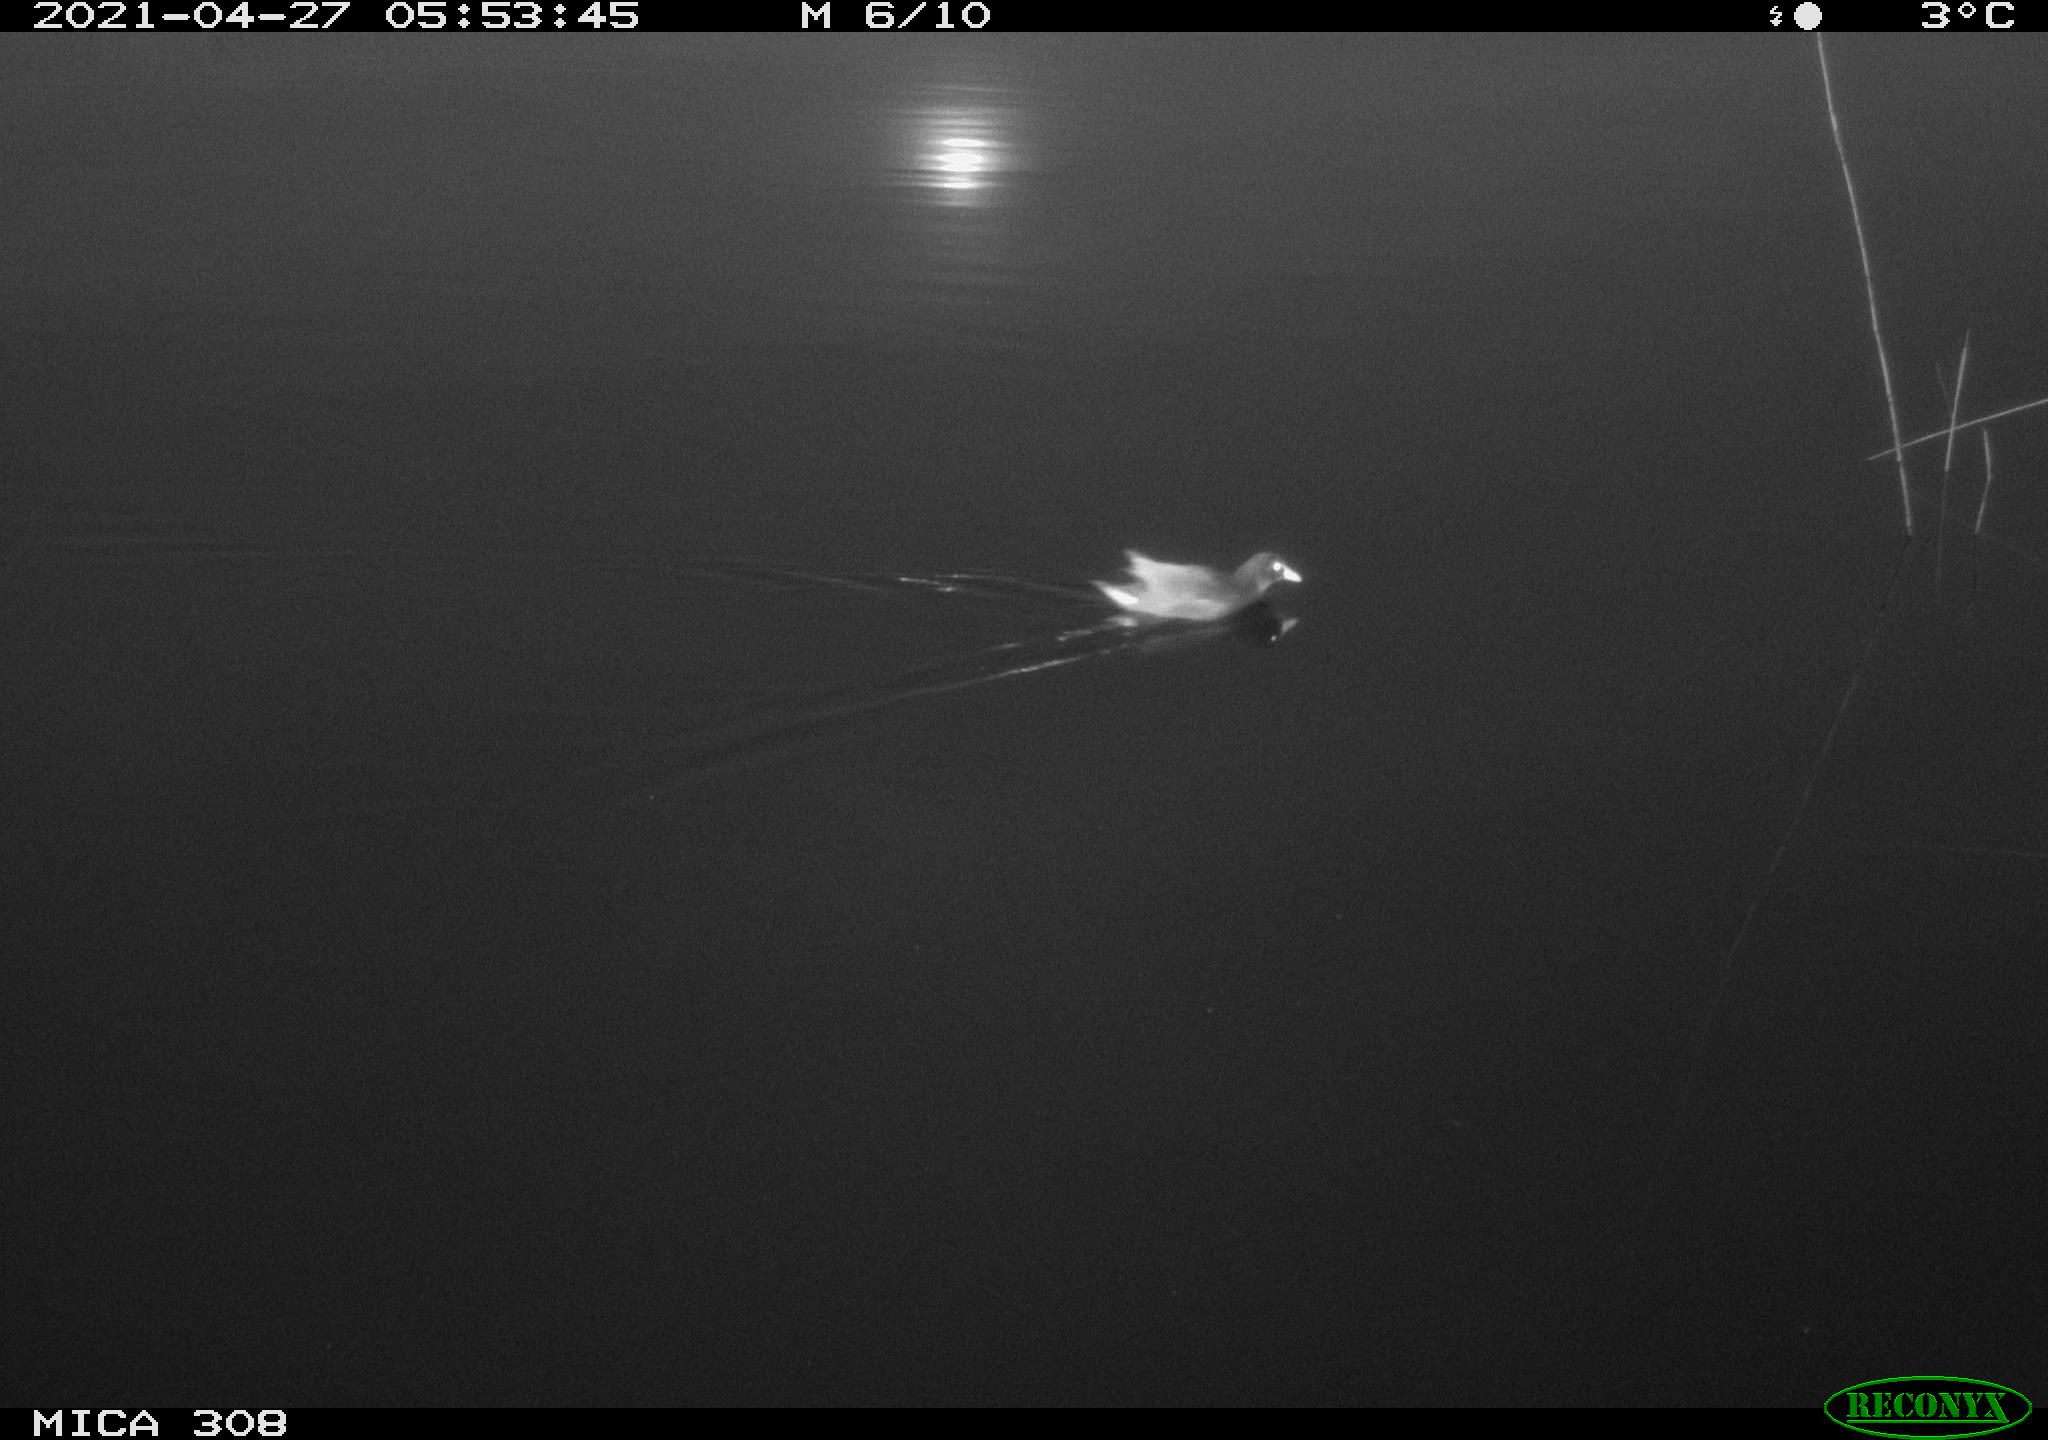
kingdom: Animalia
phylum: Chordata
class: Aves
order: Gruiformes
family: Rallidae
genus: Gallinula
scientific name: Gallinula chloropus
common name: Common moorhen
